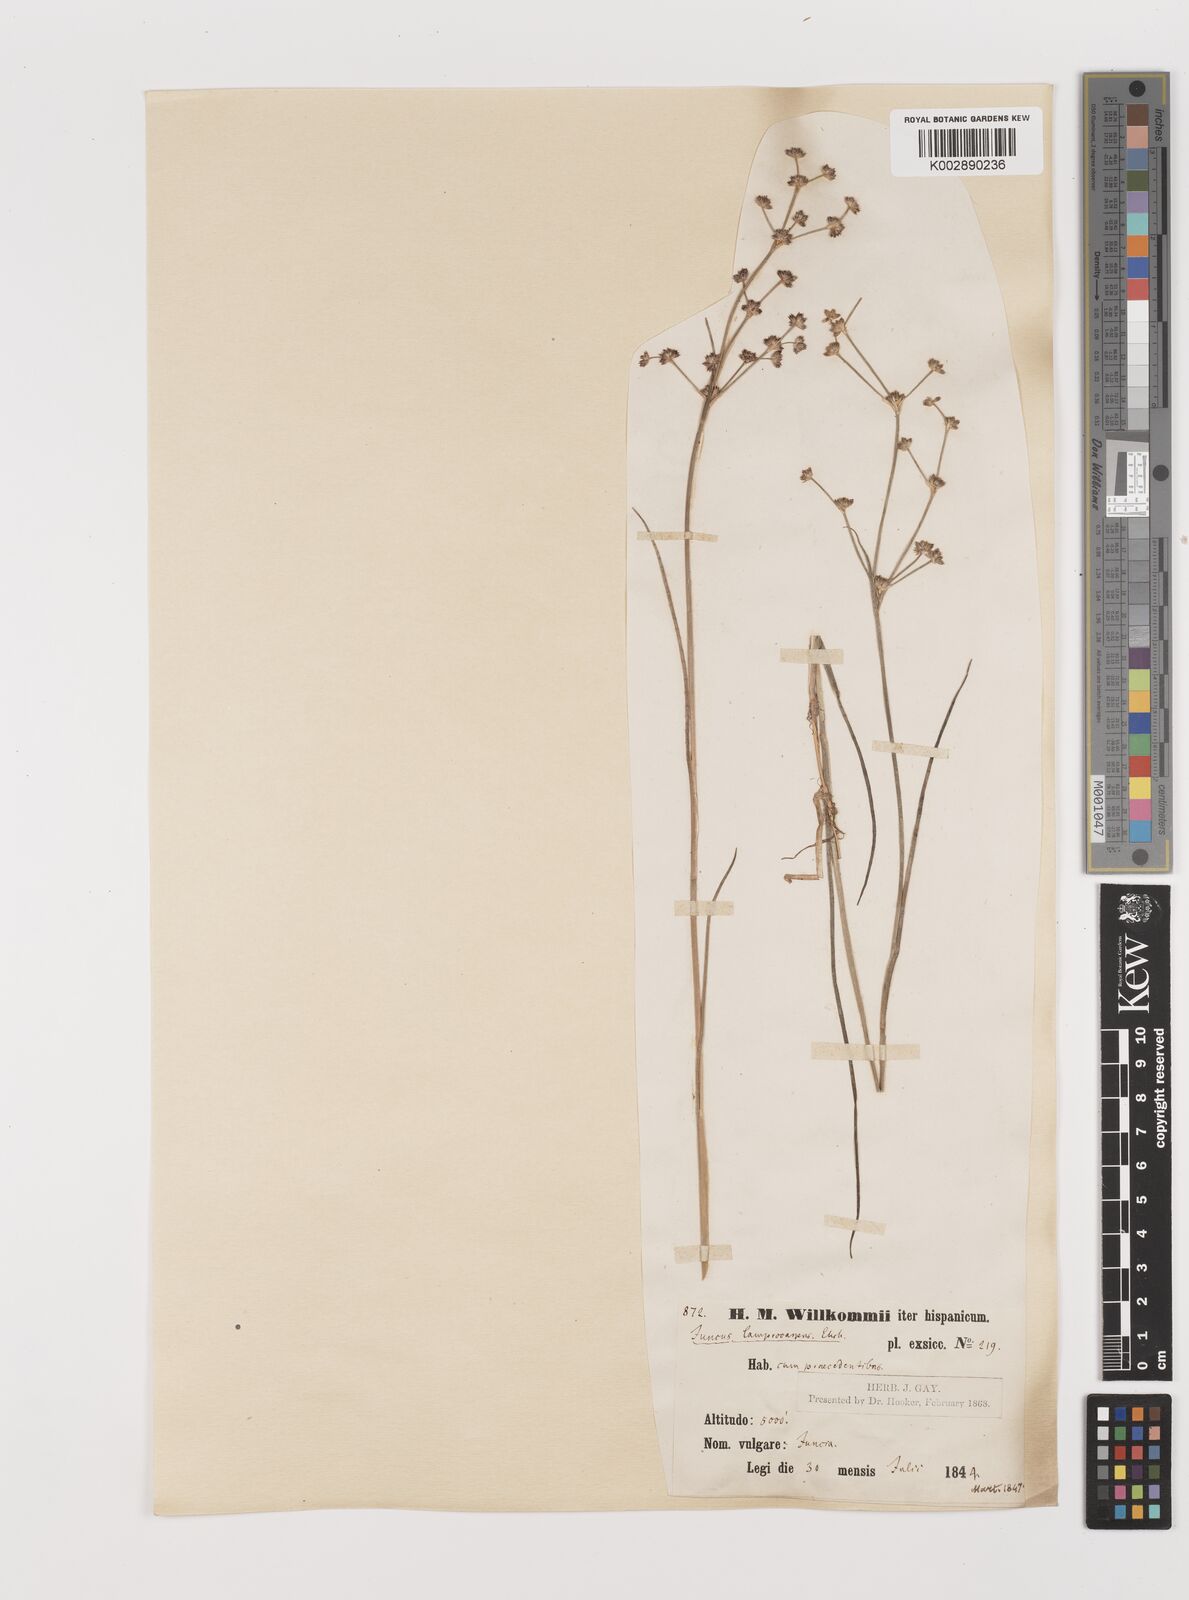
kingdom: Plantae
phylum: Tracheophyta
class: Liliopsida
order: Poales
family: Juncaceae
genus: Juncus
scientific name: Juncus articulatus
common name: Jointed rush
